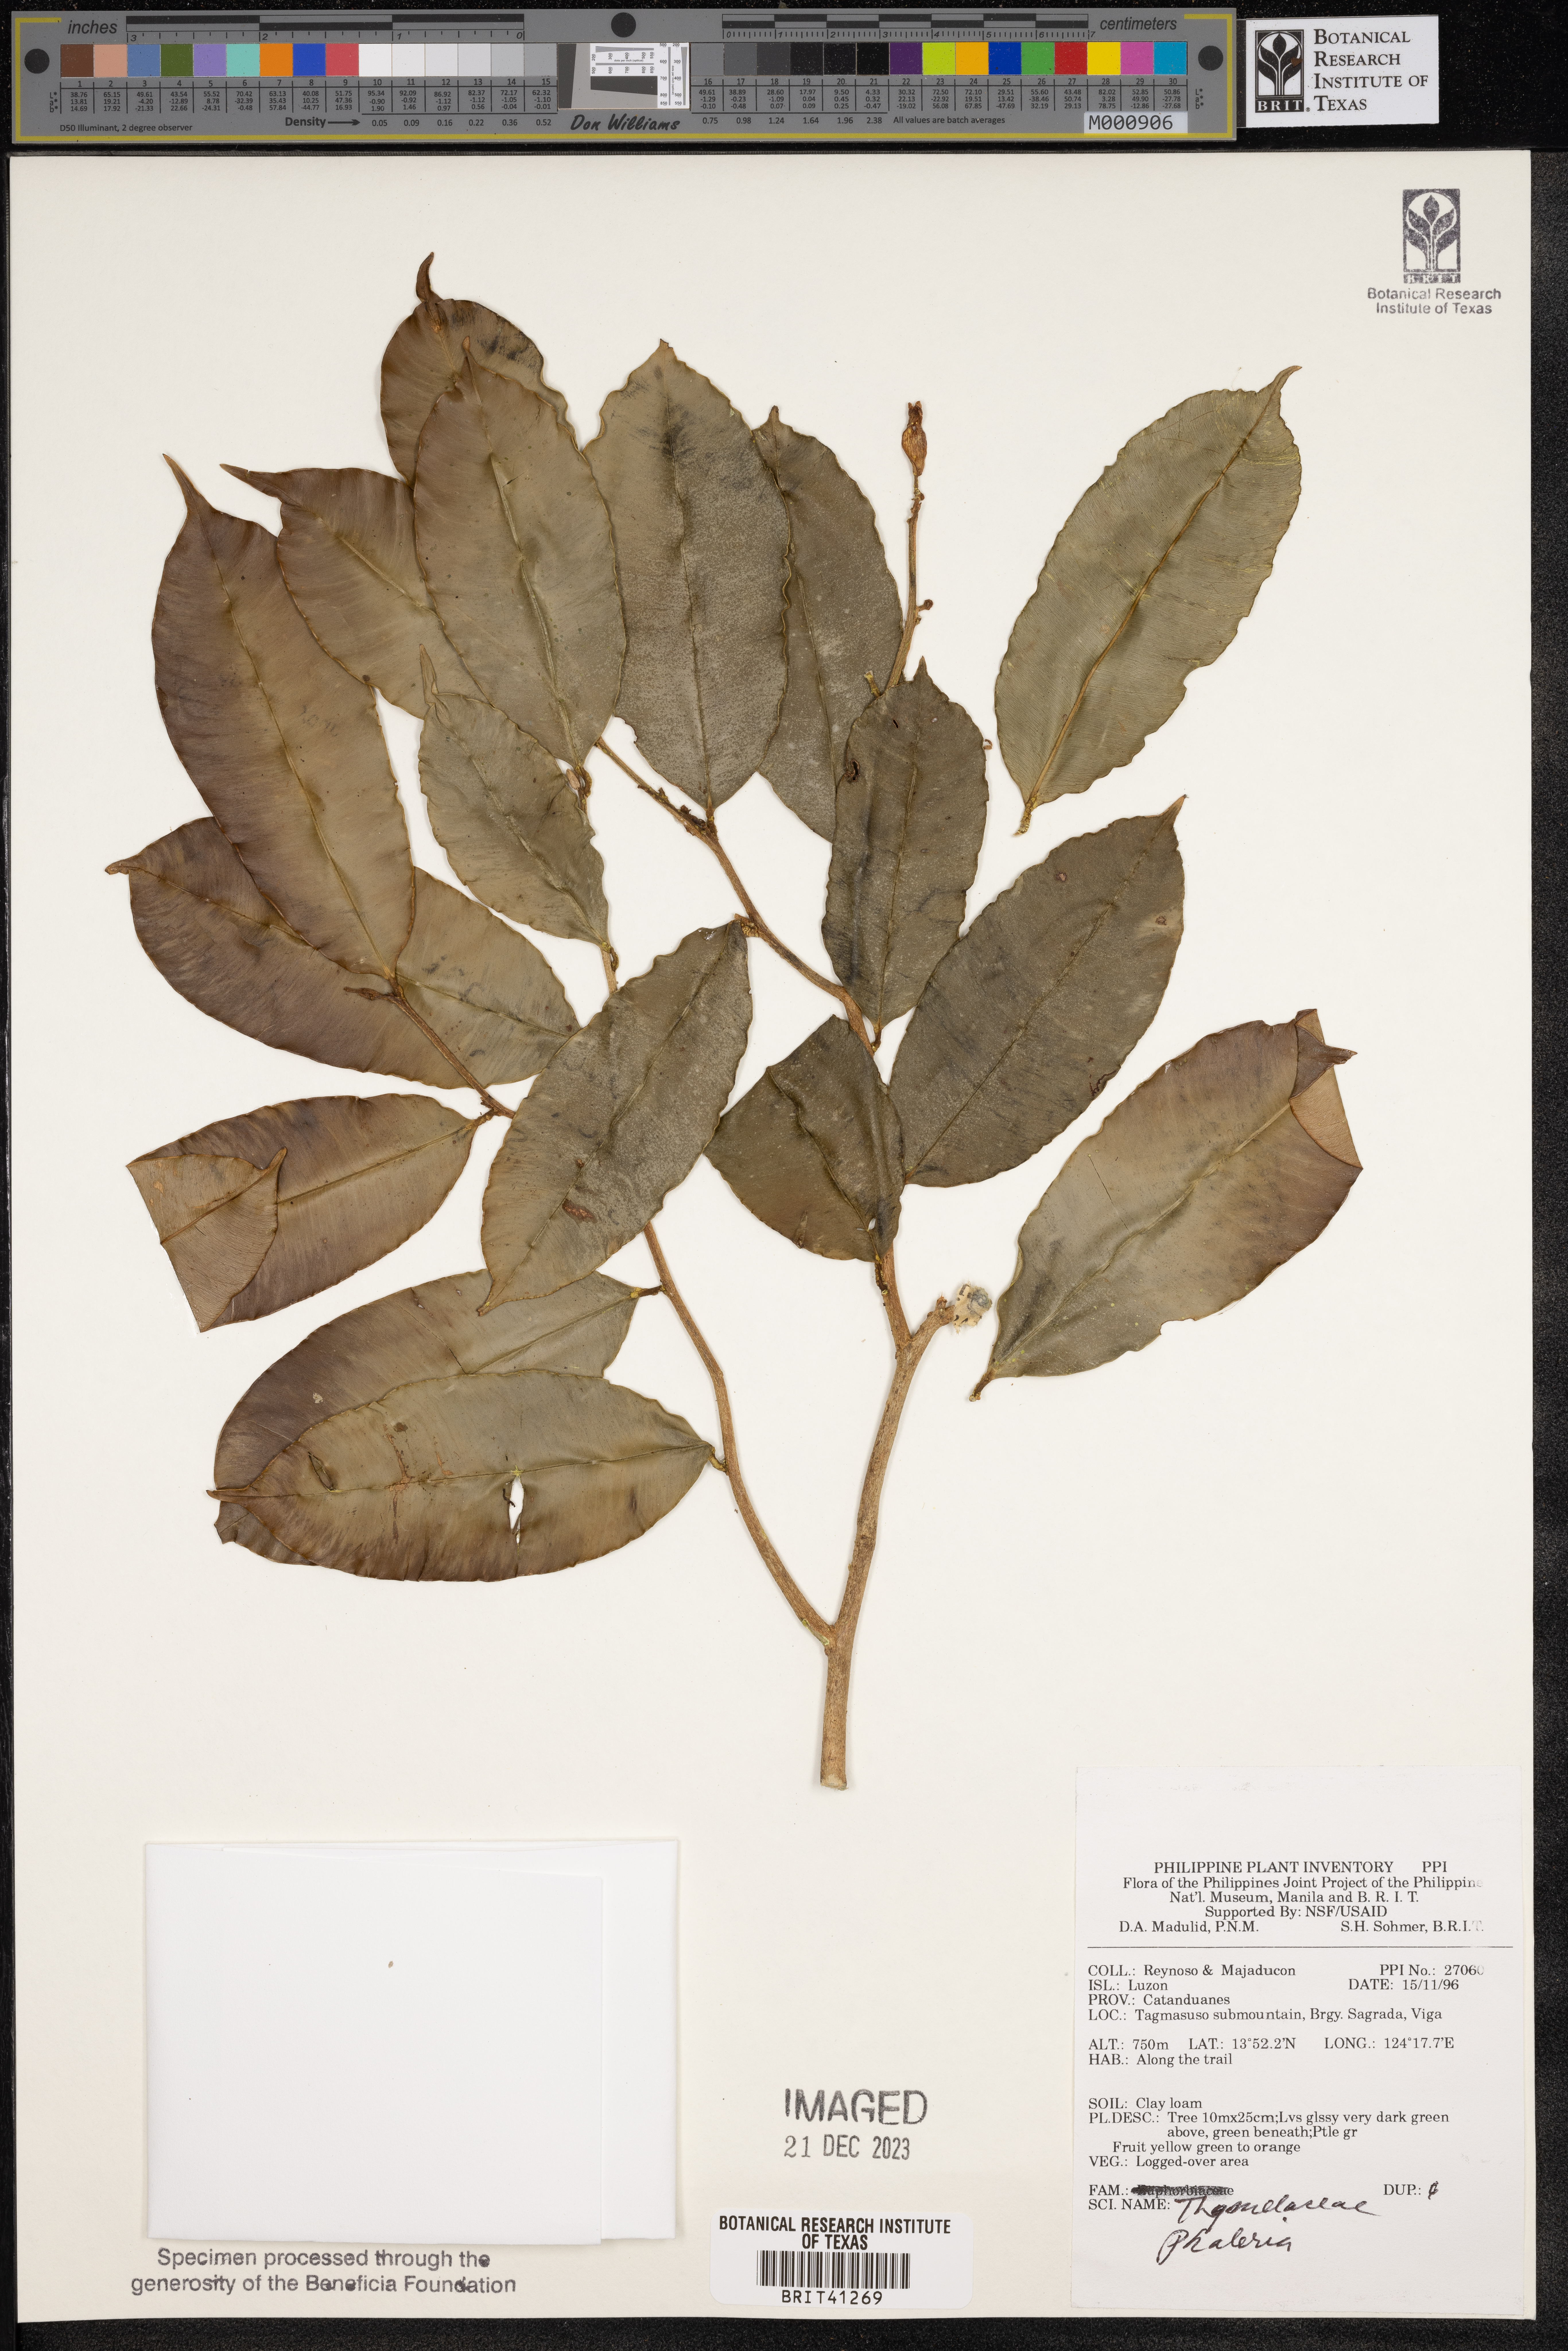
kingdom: Plantae
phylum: Tracheophyta
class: Magnoliopsida
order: Malvales
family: Thymelaeaceae
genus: Phaleria
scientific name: Phaleria
